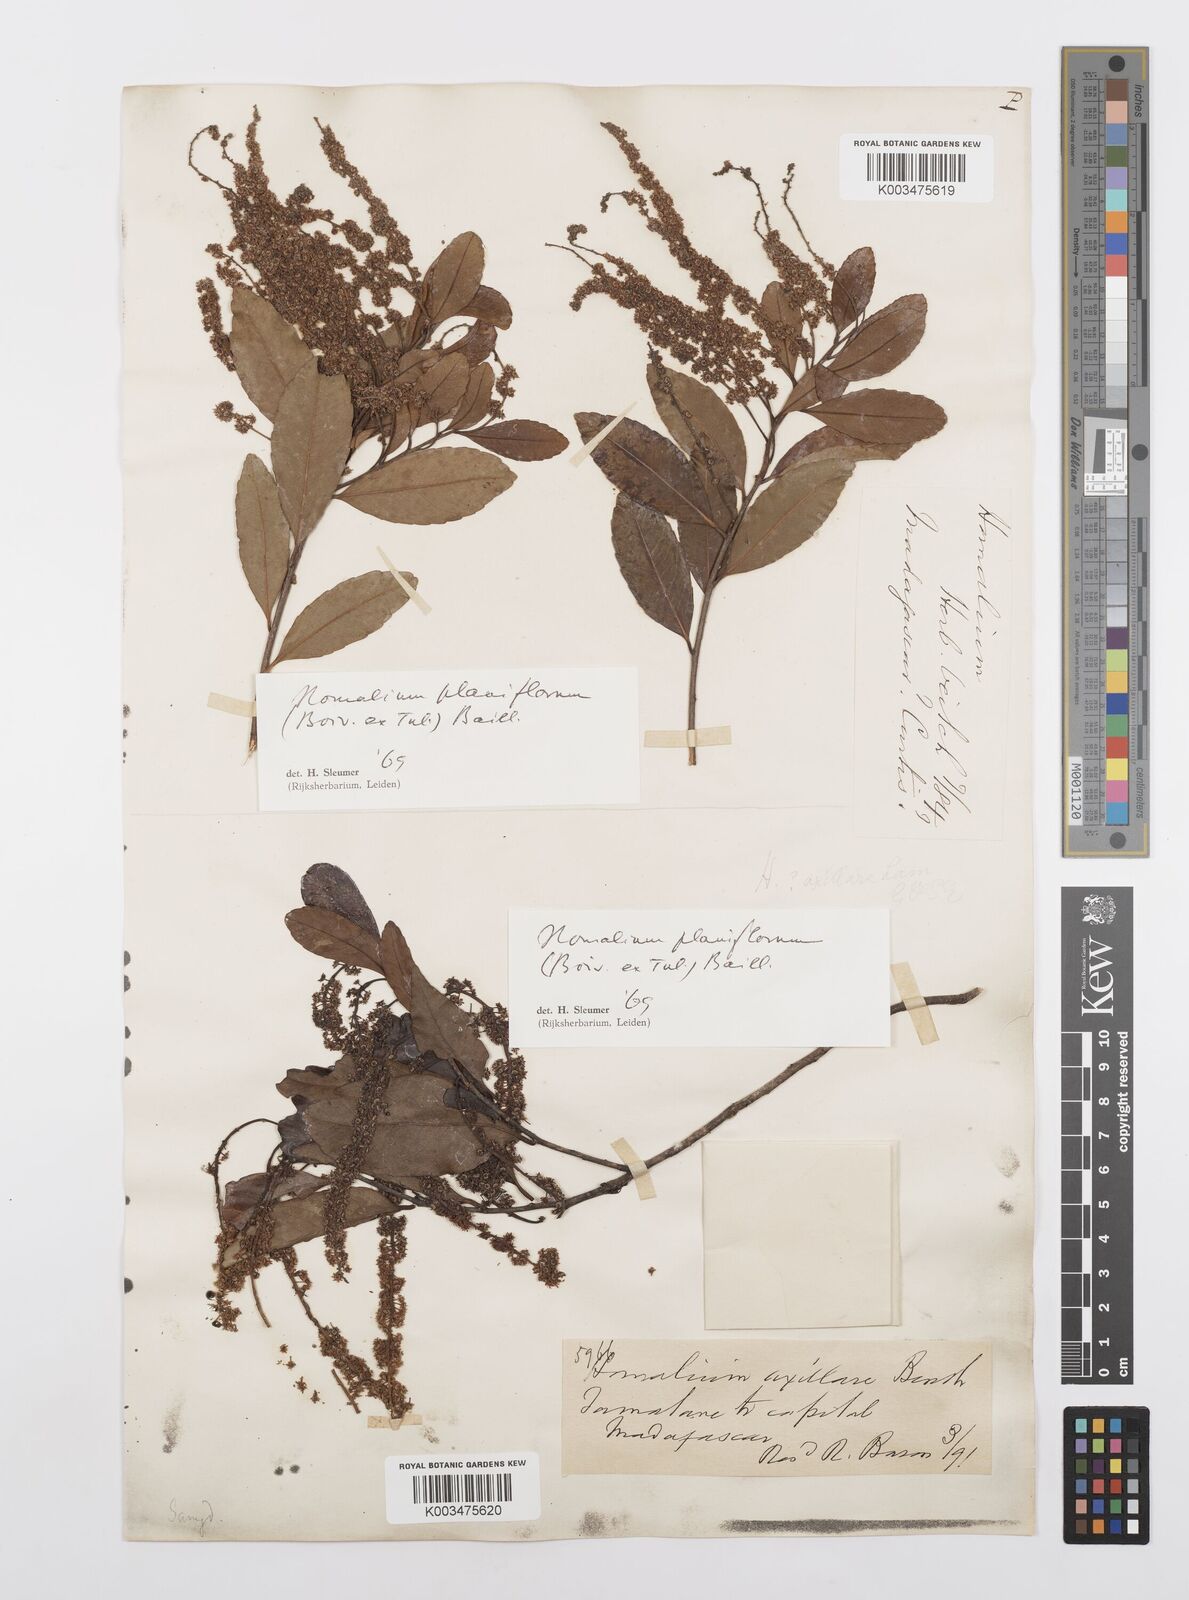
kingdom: Plantae
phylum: Tracheophyta
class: Magnoliopsida
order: Malpighiales
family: Salicaceae
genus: Homalium
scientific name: Homalium planiflorum
